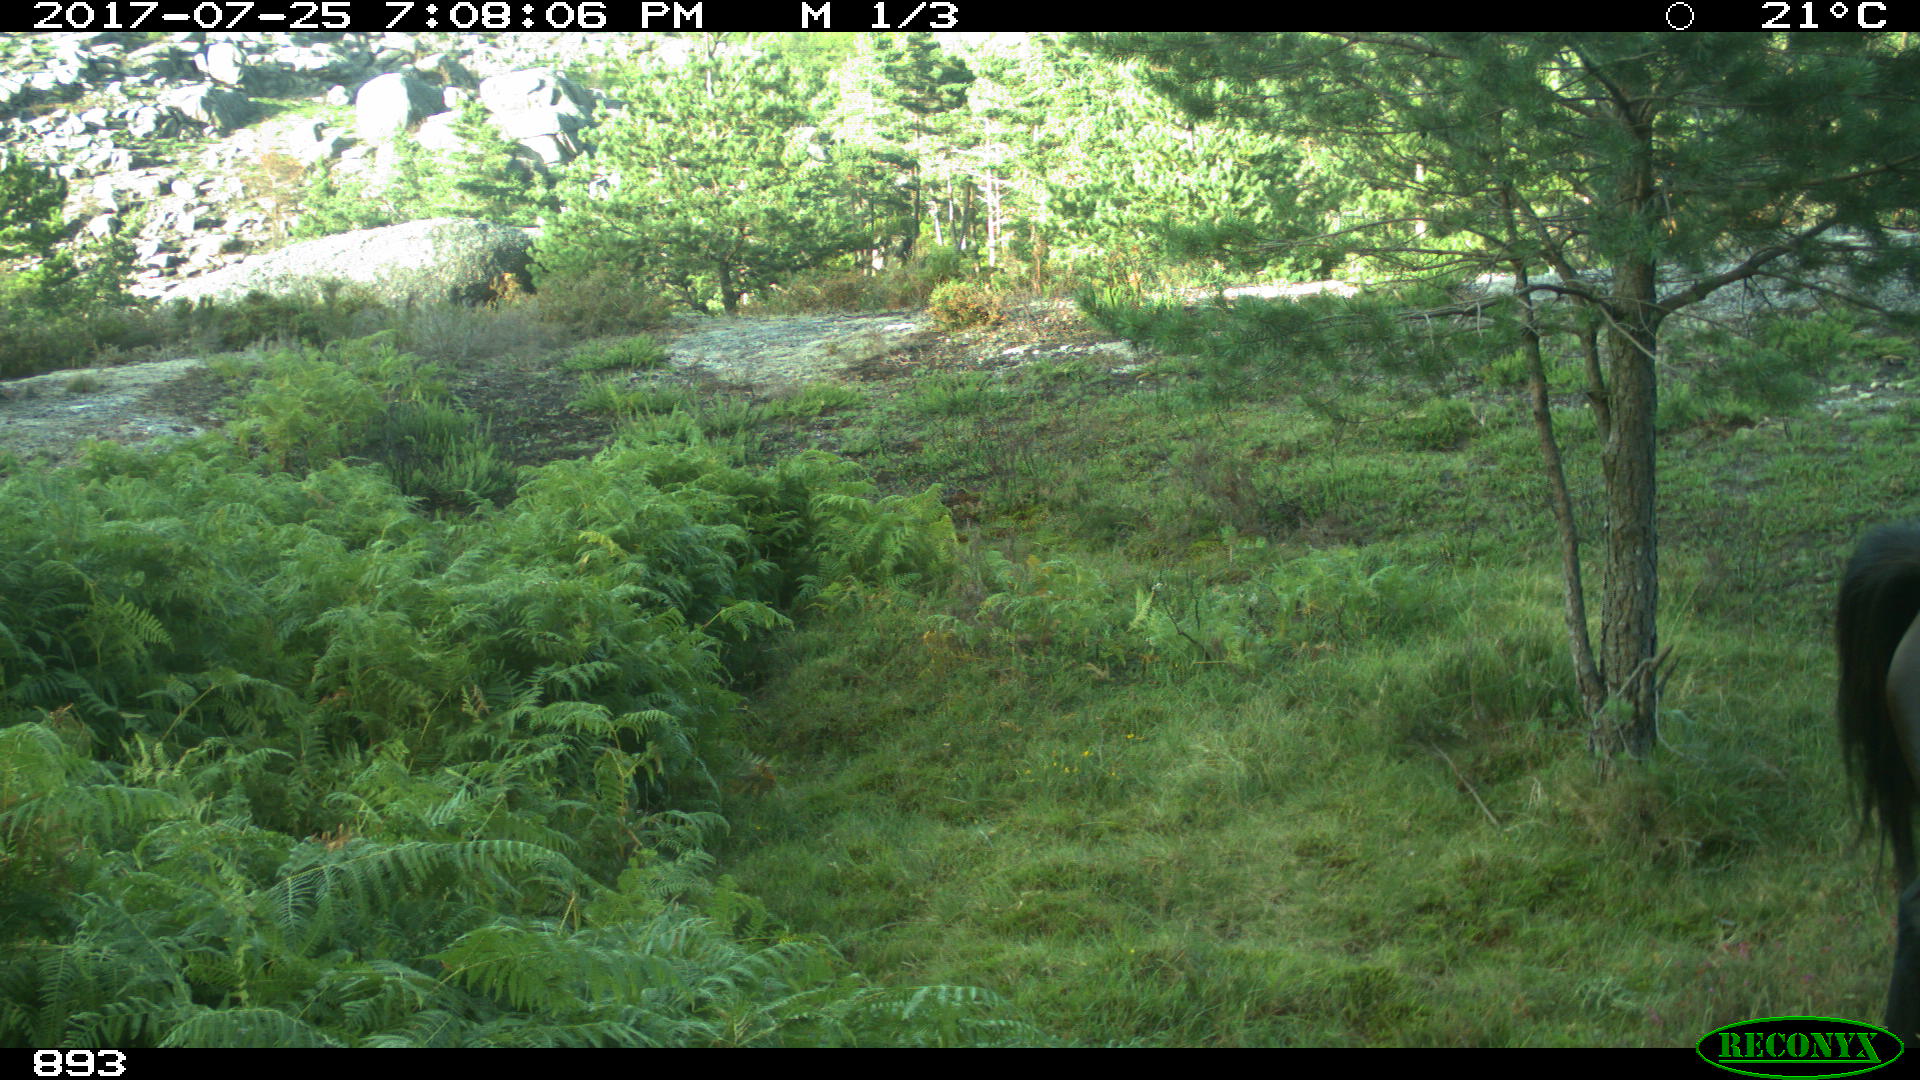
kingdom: Animalia
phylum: Chordata
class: Mammalia
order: Perissodactyla
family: Equidae
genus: Equus
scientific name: Equus caballus
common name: Horse
